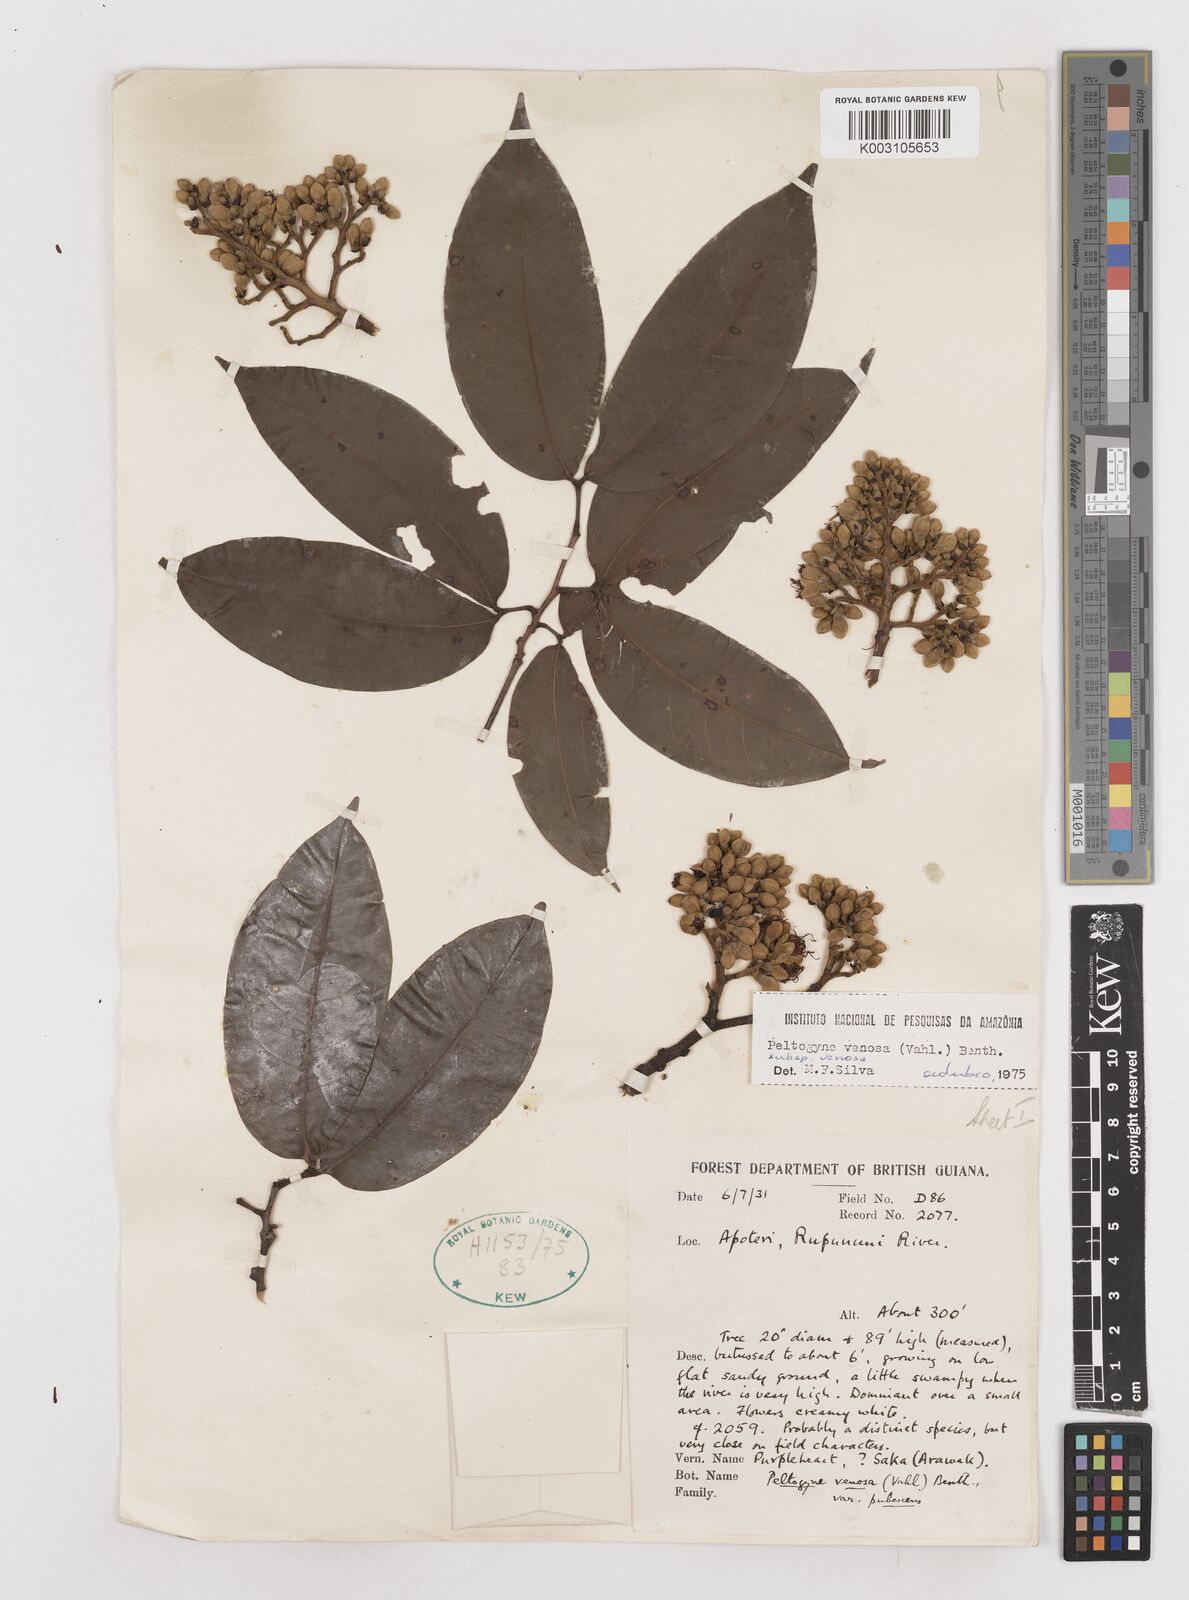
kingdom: Plantae
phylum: Tracheophyta
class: Magnoliopsida
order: Fabales
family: Fabaceae
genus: Peltogyne
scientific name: Peltogyne venosa
